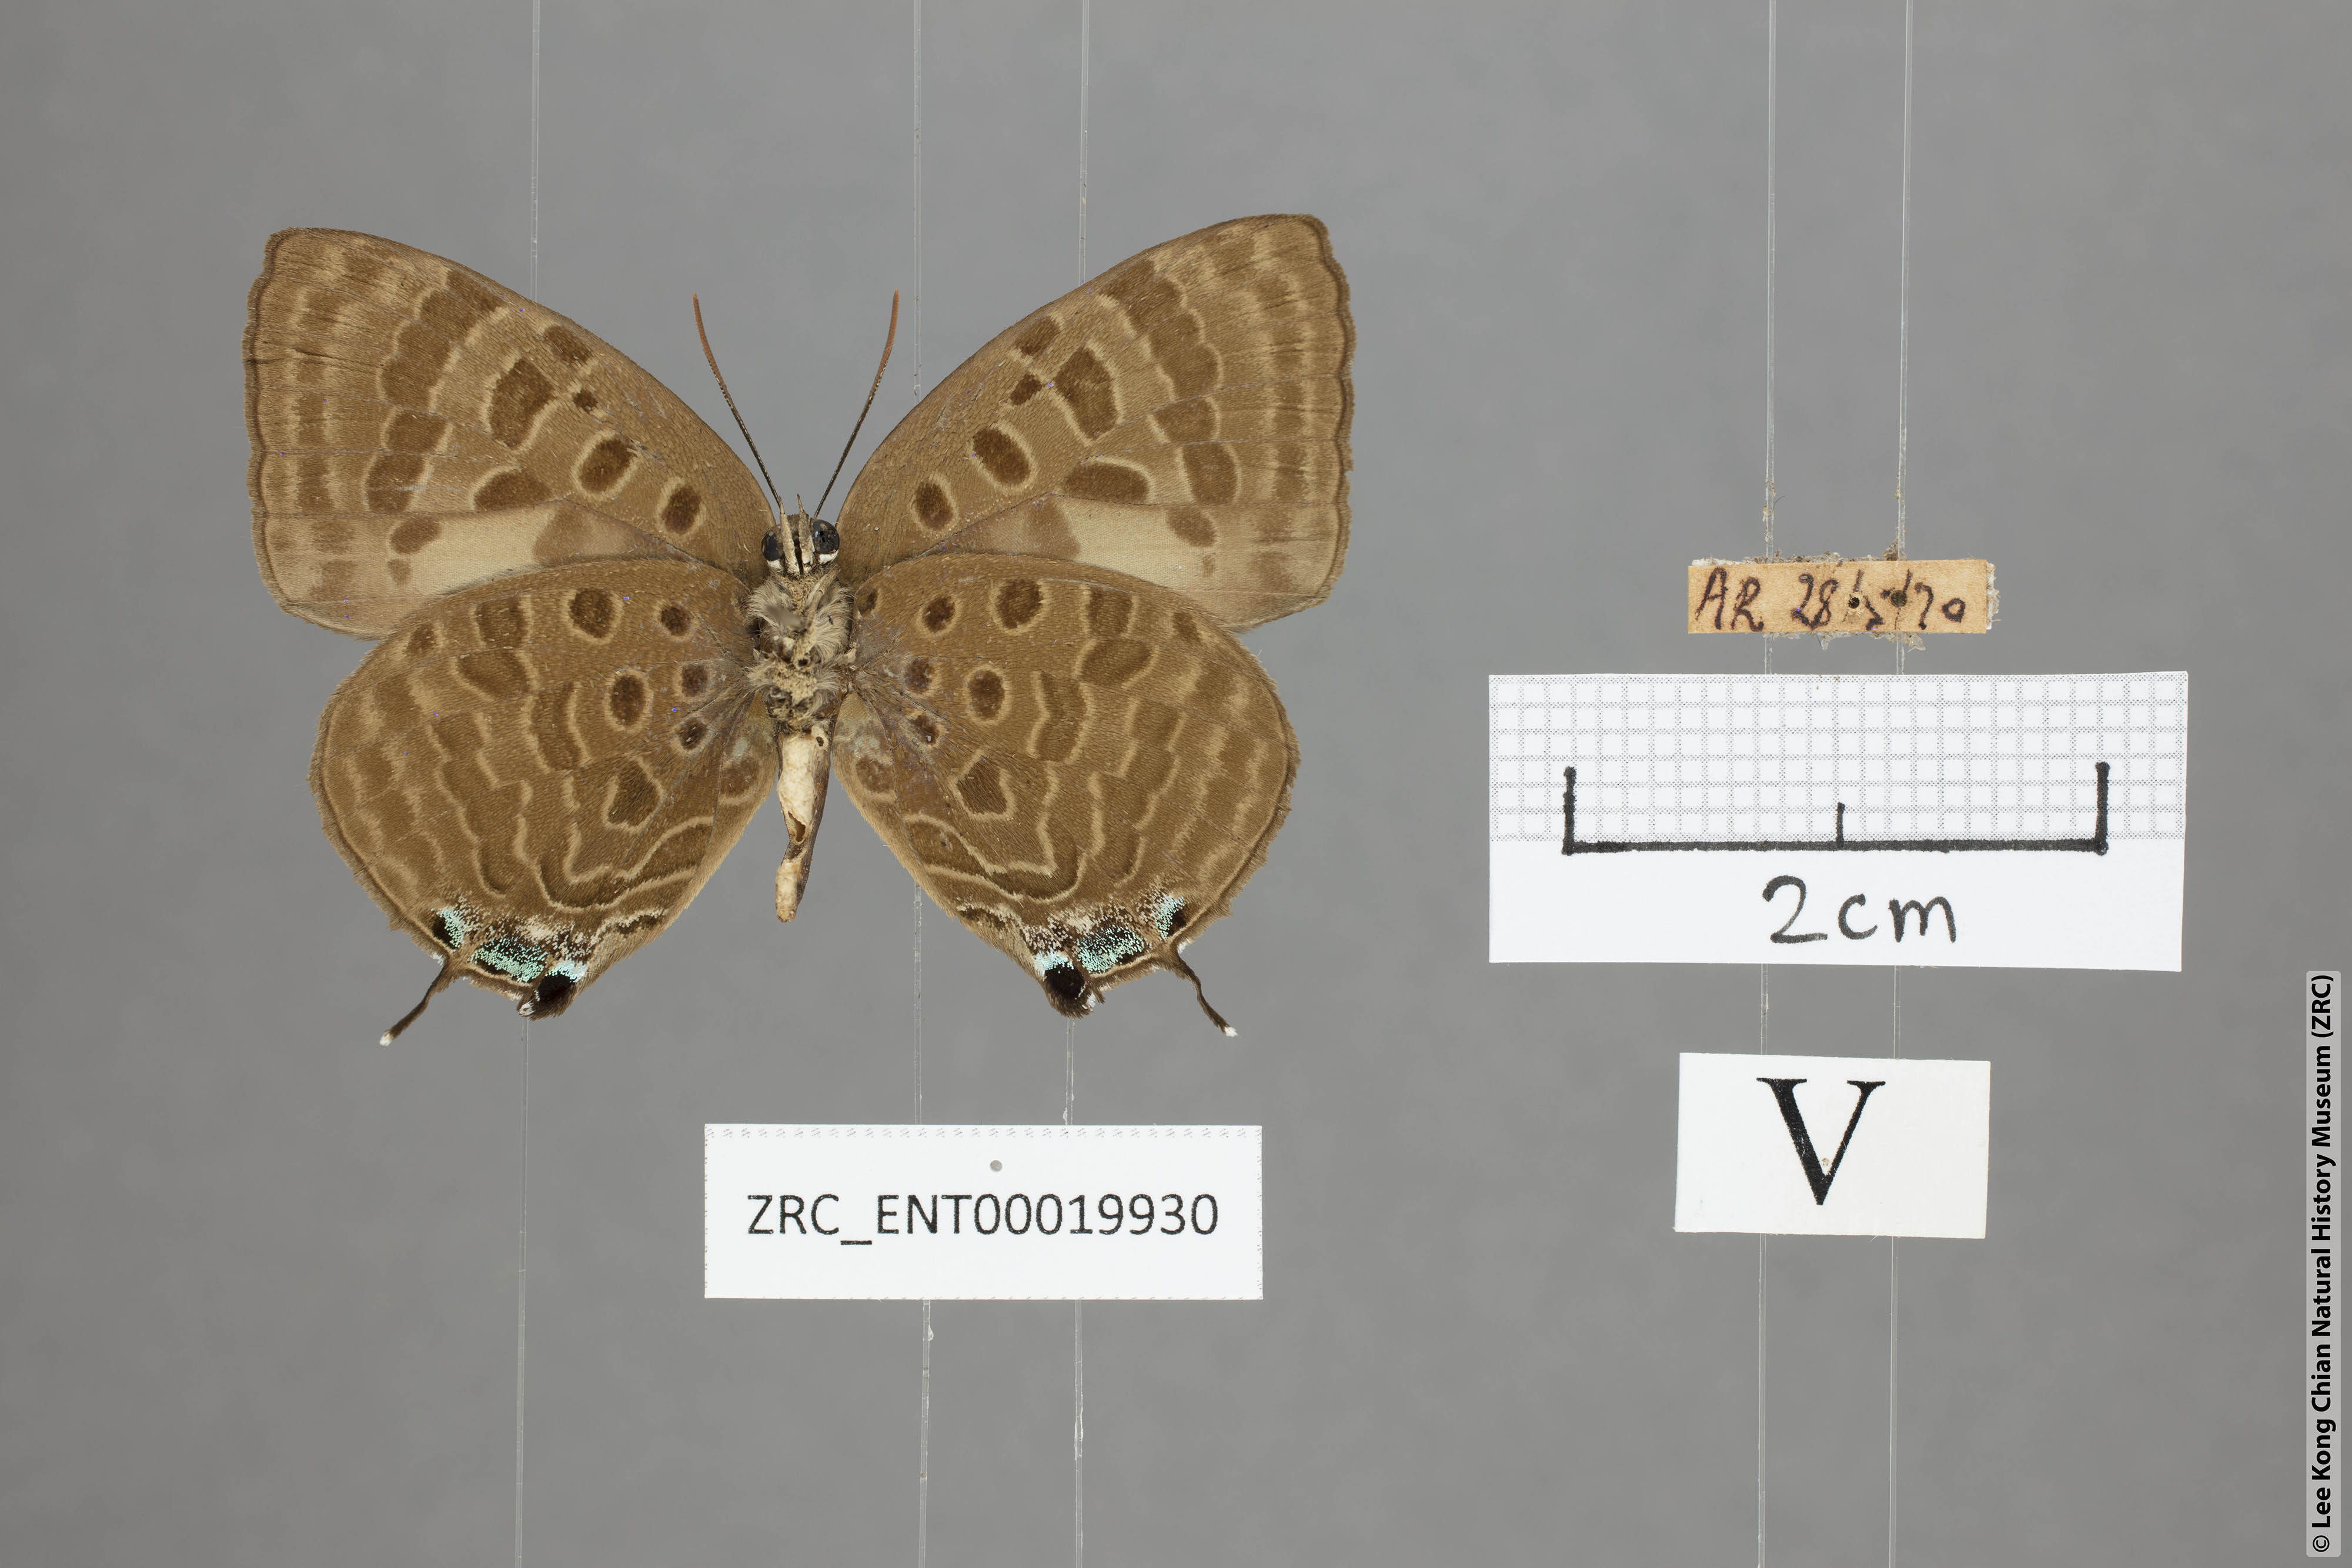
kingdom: Animalia
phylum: Arthropoda
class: Insecta
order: Lepidoptera
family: Lycaenidae
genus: Arhopala
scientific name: Arhopala zambra
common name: Zambra oakblue
